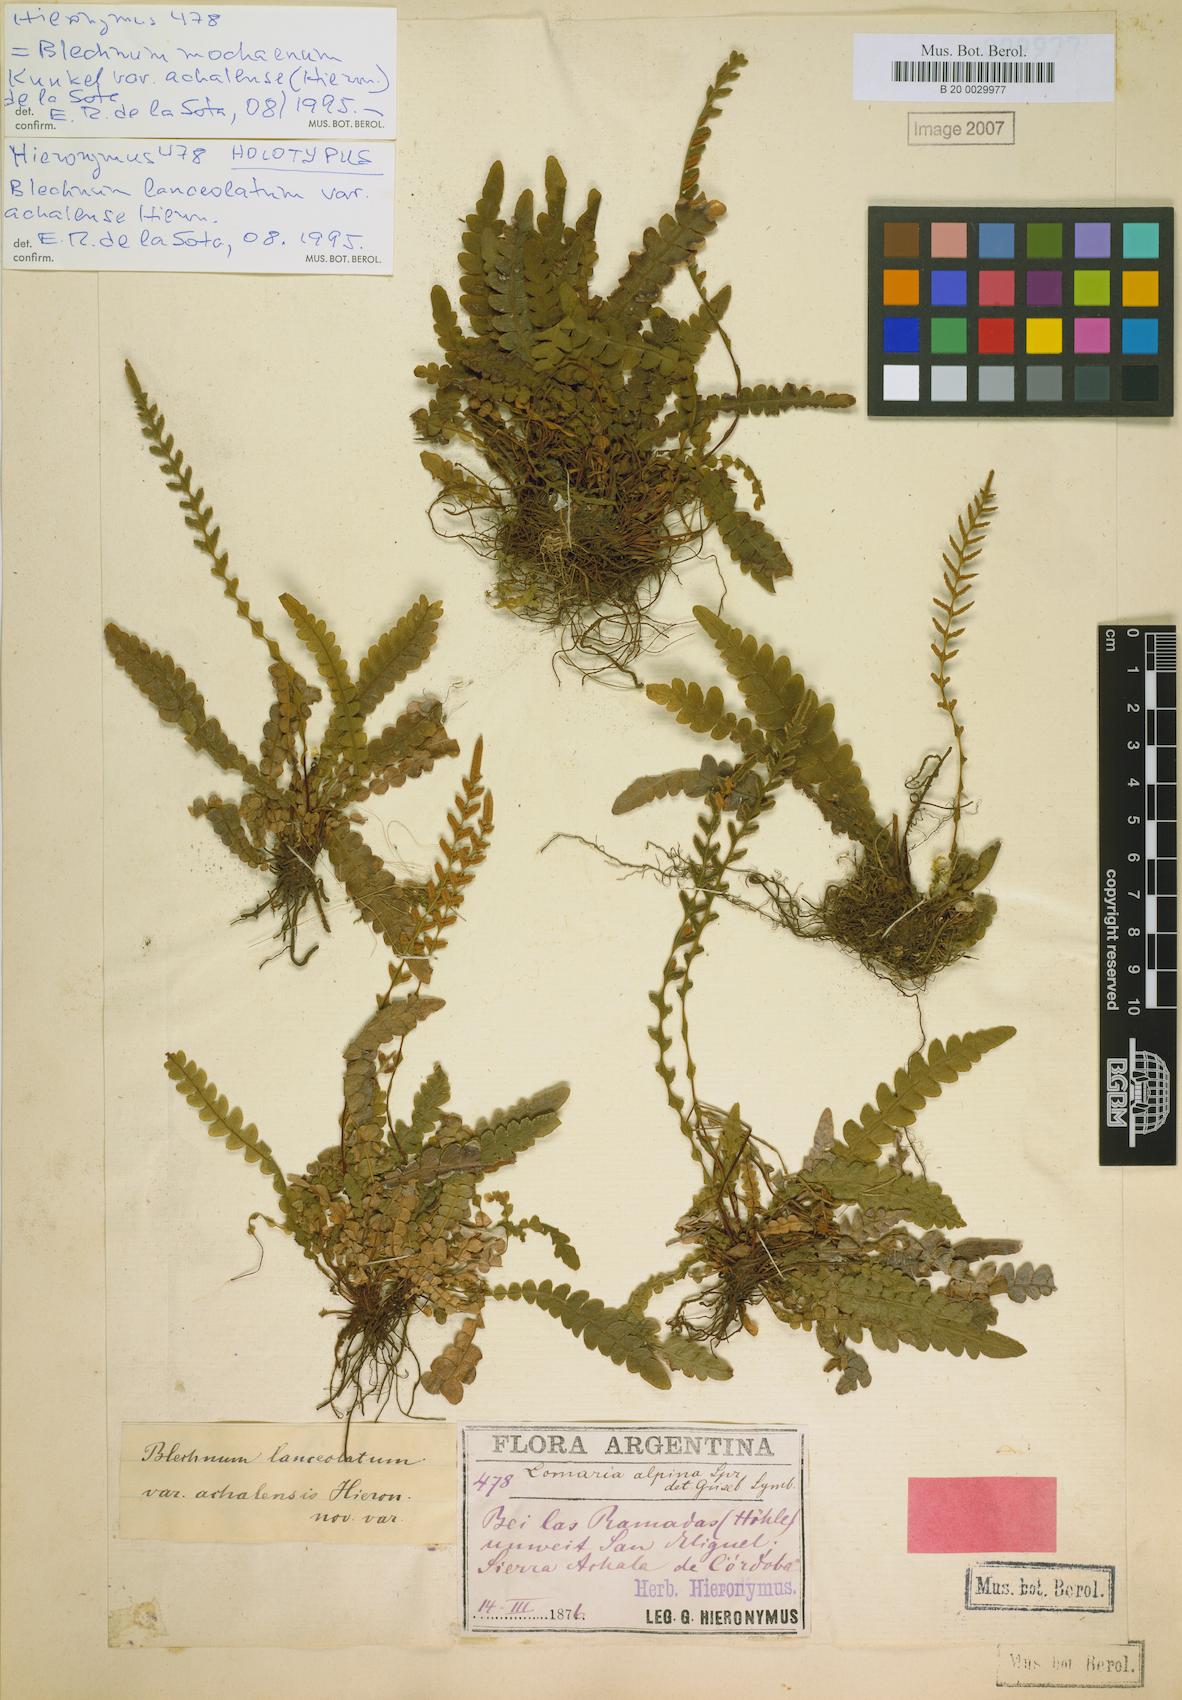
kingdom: Plantae
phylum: Tracheophyta
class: Polypodiopsida
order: Polypodiales
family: Blechnaceae
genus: Austroblechnum
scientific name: Austroblechnum lechleri
